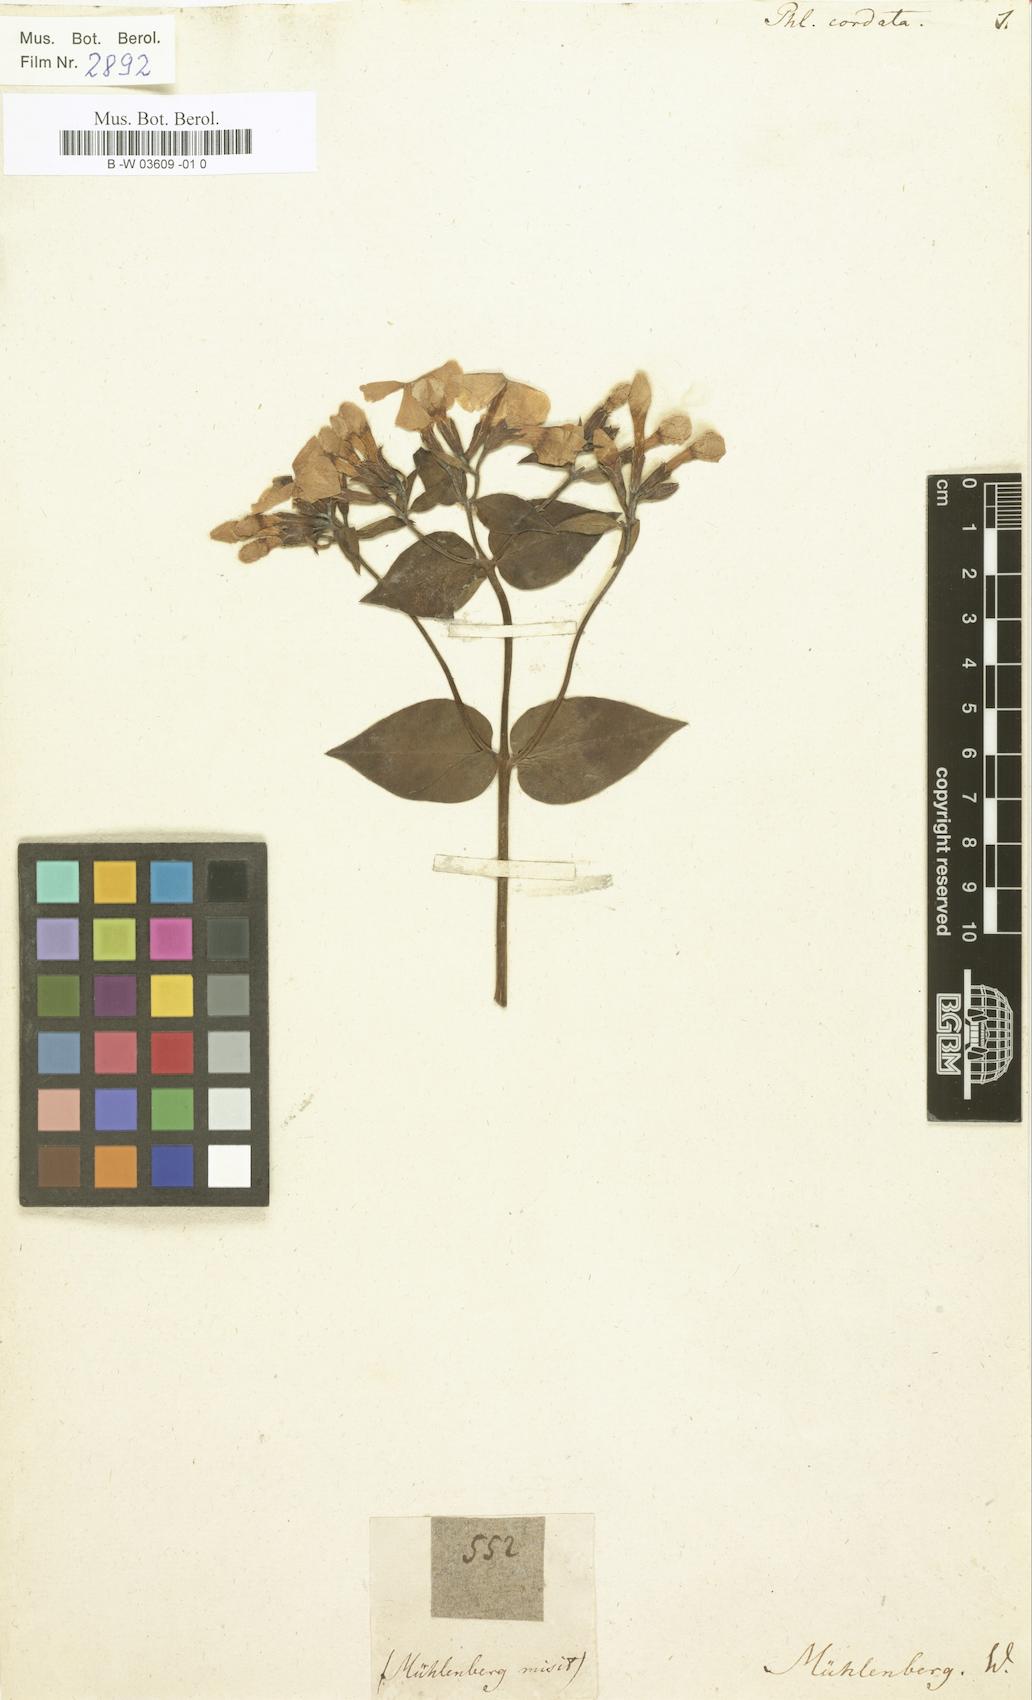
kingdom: Plantae
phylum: Tracheophyta
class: Magnoliopsida
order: Ericales
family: Polemoniaceae
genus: Phlox
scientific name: Phlox paniculata
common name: Fall phlox
